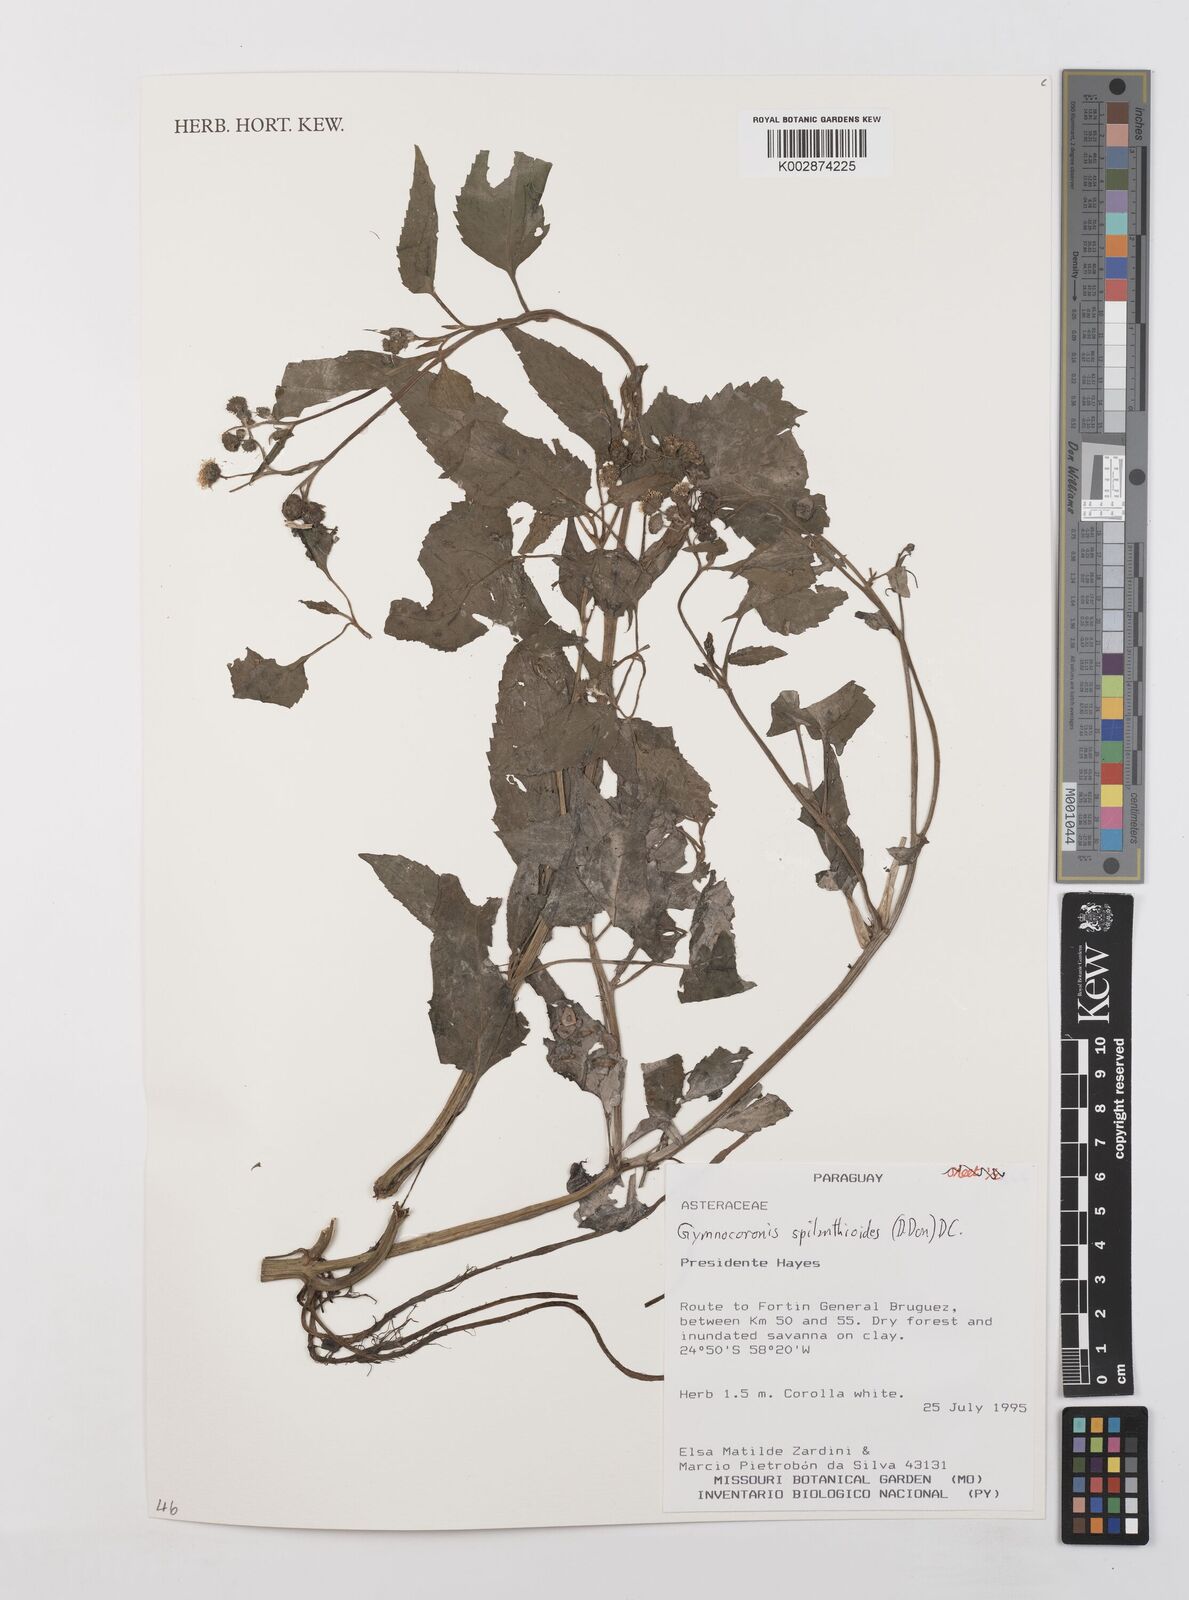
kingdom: Plantae
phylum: Tracheophyta
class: Magnoliopsida
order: Asterales
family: Asteraceae
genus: Gymnocoronis
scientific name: Gymnocoronis spilanthoides
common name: Senegal teaplant
